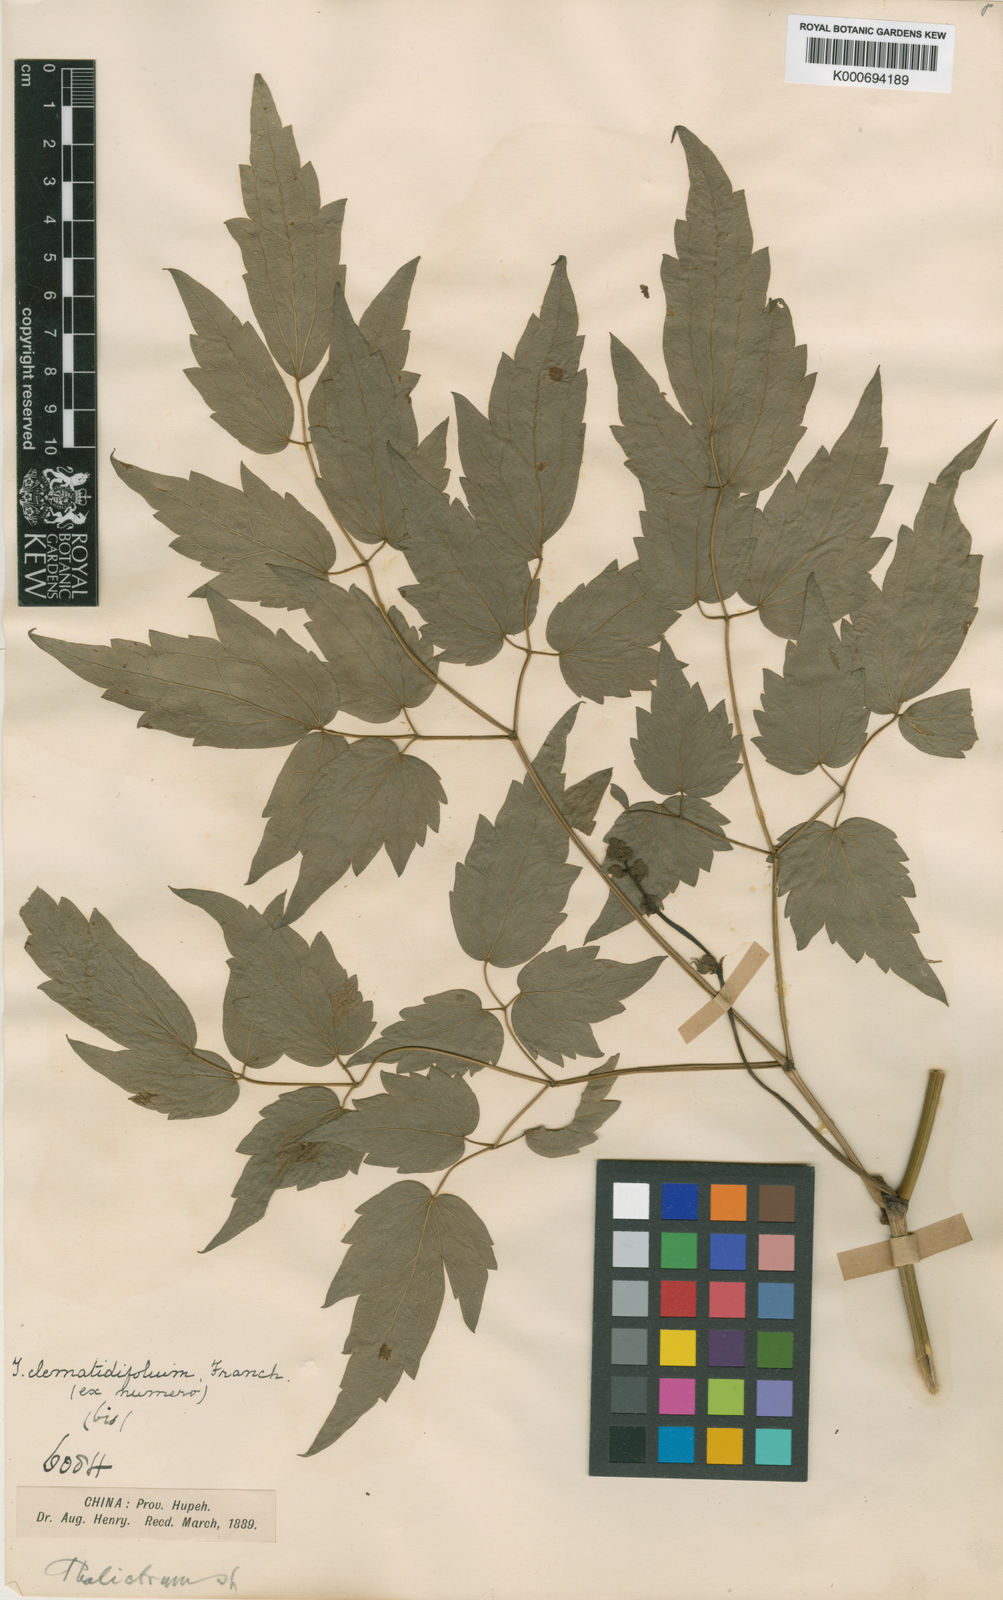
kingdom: Plantae
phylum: Tracheophyta
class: Magnoliopsida
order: Ranunculales
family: Ranunculaceae
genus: Thalictrum
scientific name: Thalictrum robustum
